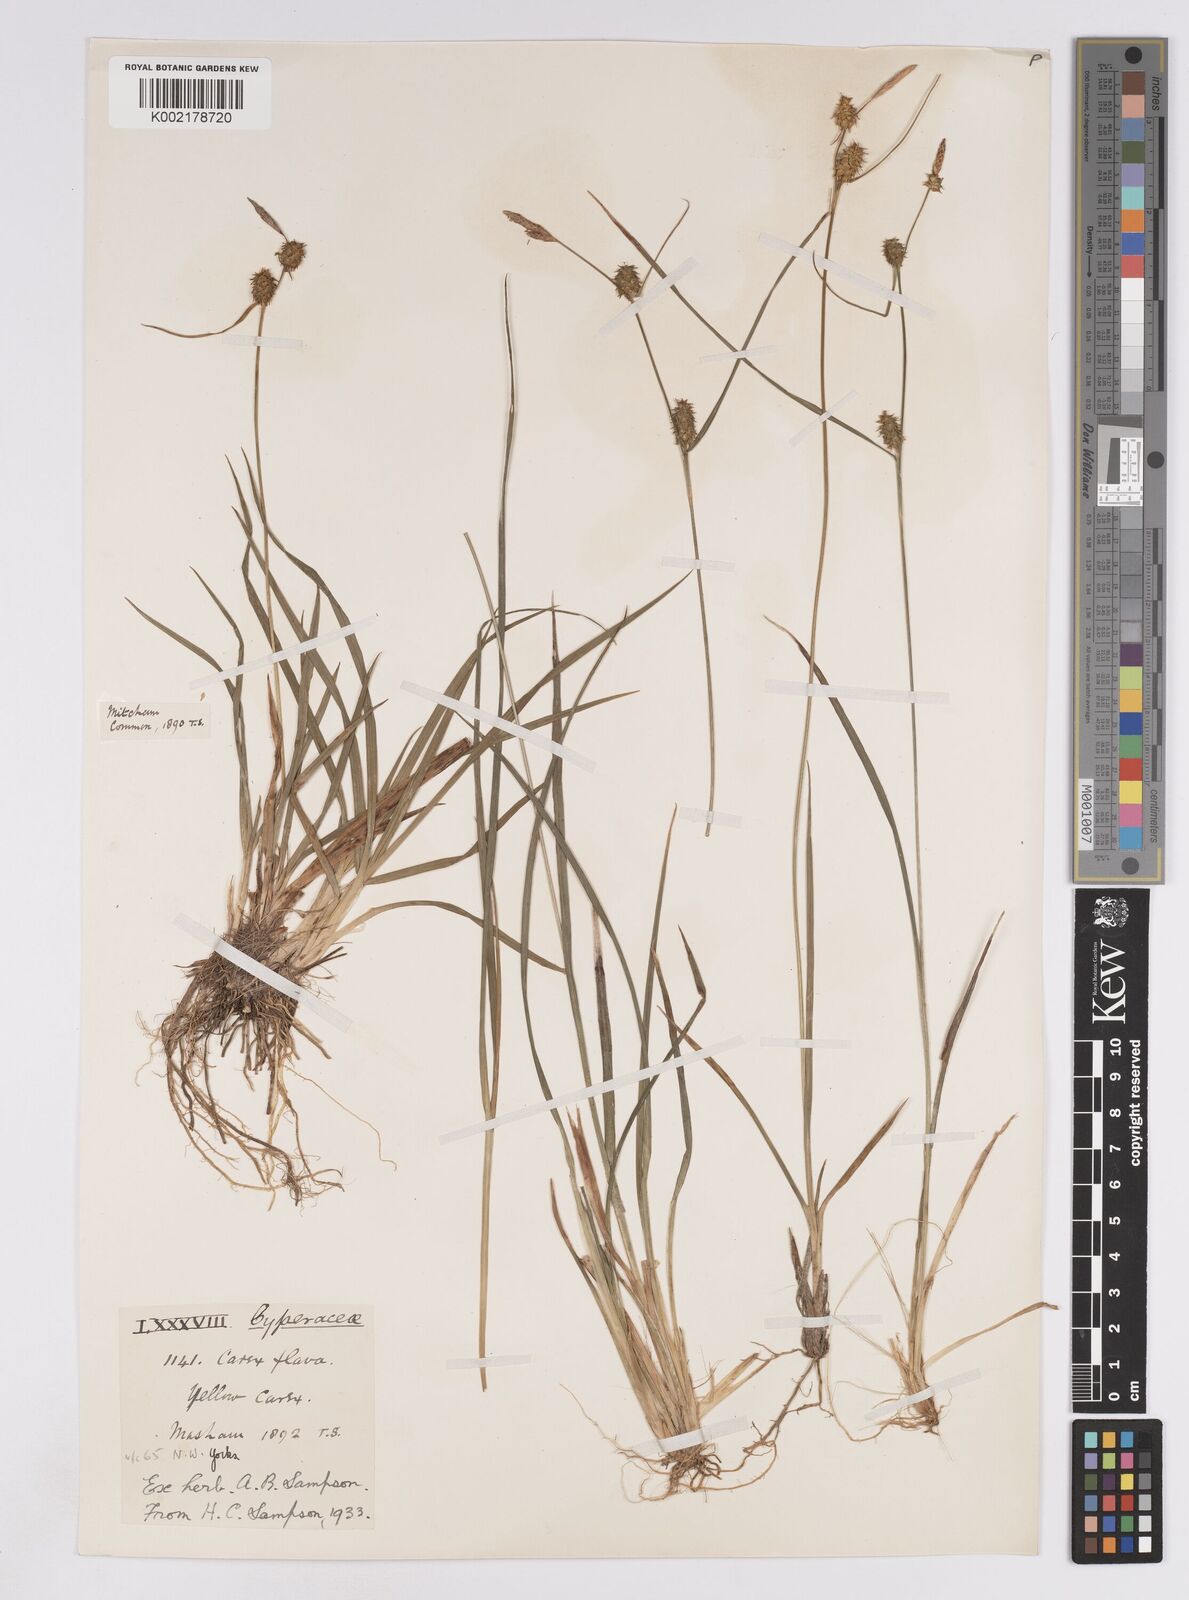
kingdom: Plantae
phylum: Tracheophyta
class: Liliopsida
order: Poales
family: Cyperaceae
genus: Carex
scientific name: Carex lepidocarpa
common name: Long-stalked yellow-sedge
